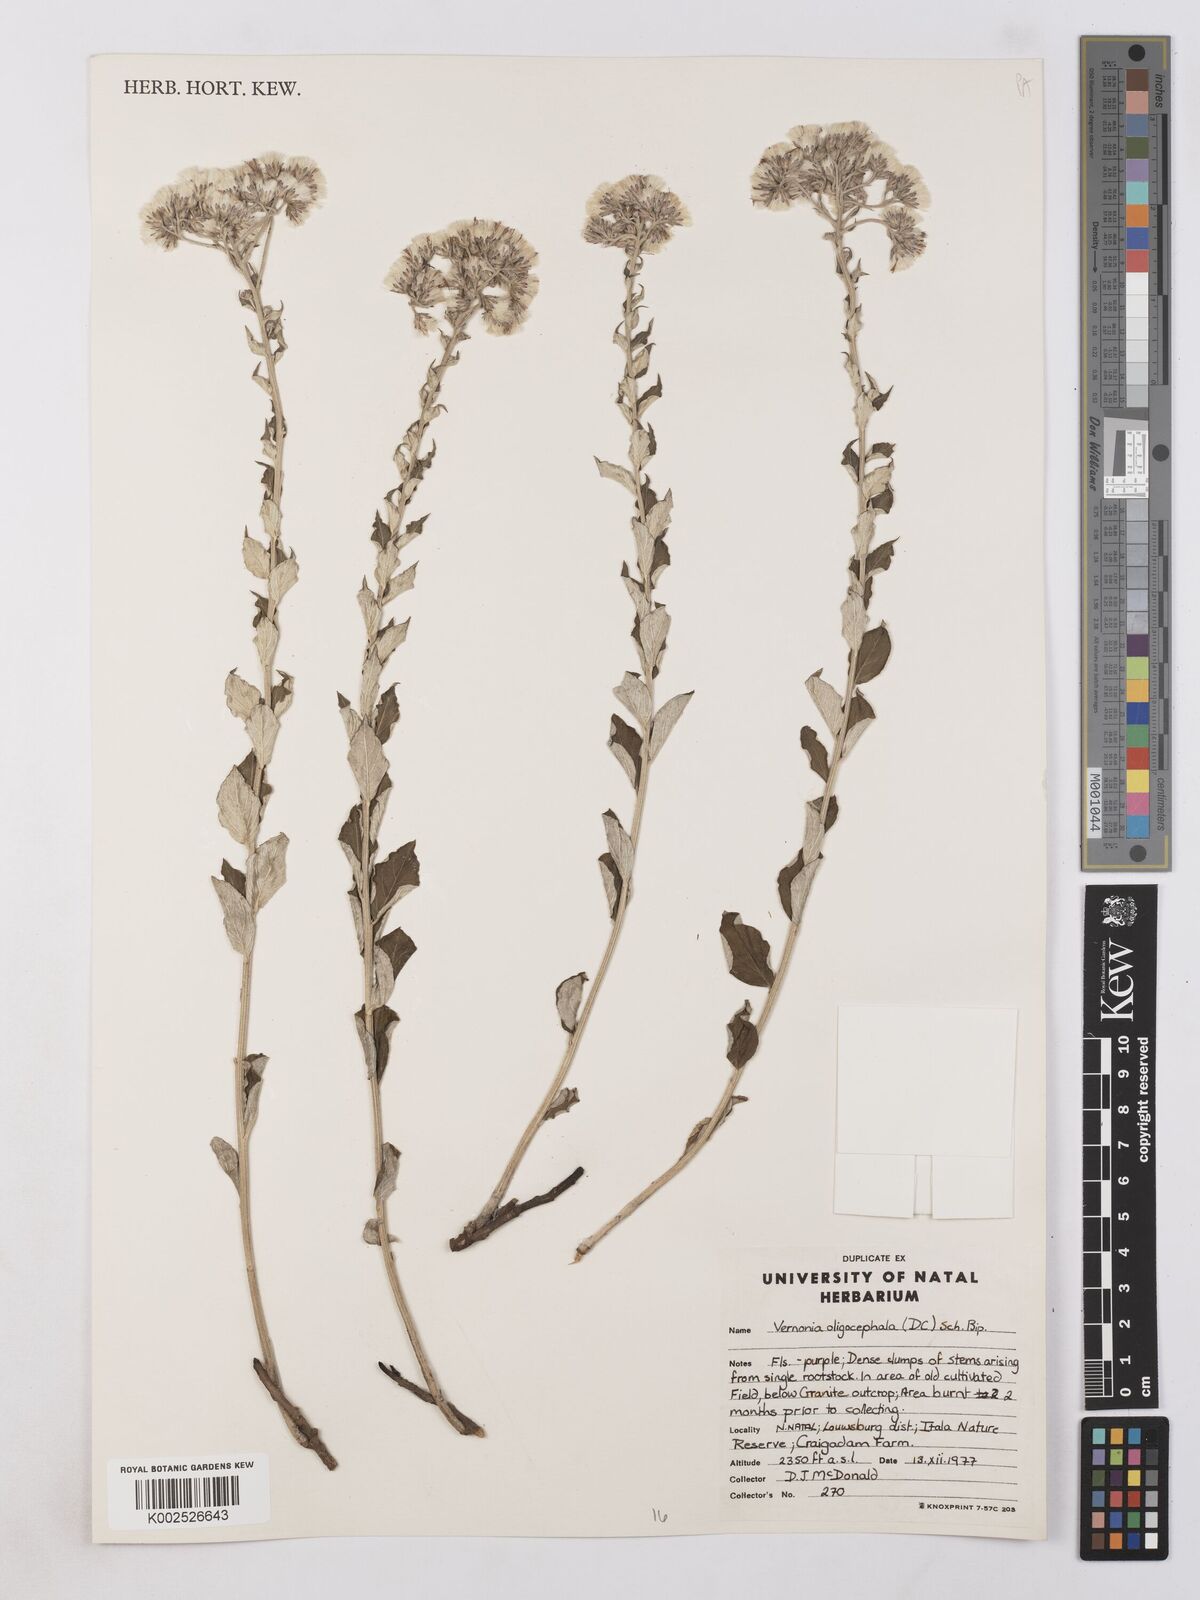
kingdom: Plantae
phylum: Tracheophyta
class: Magnoliopsida
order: Asterales
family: Asteraceae
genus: Hilliardiella
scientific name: Hilliardiella oligocephala
